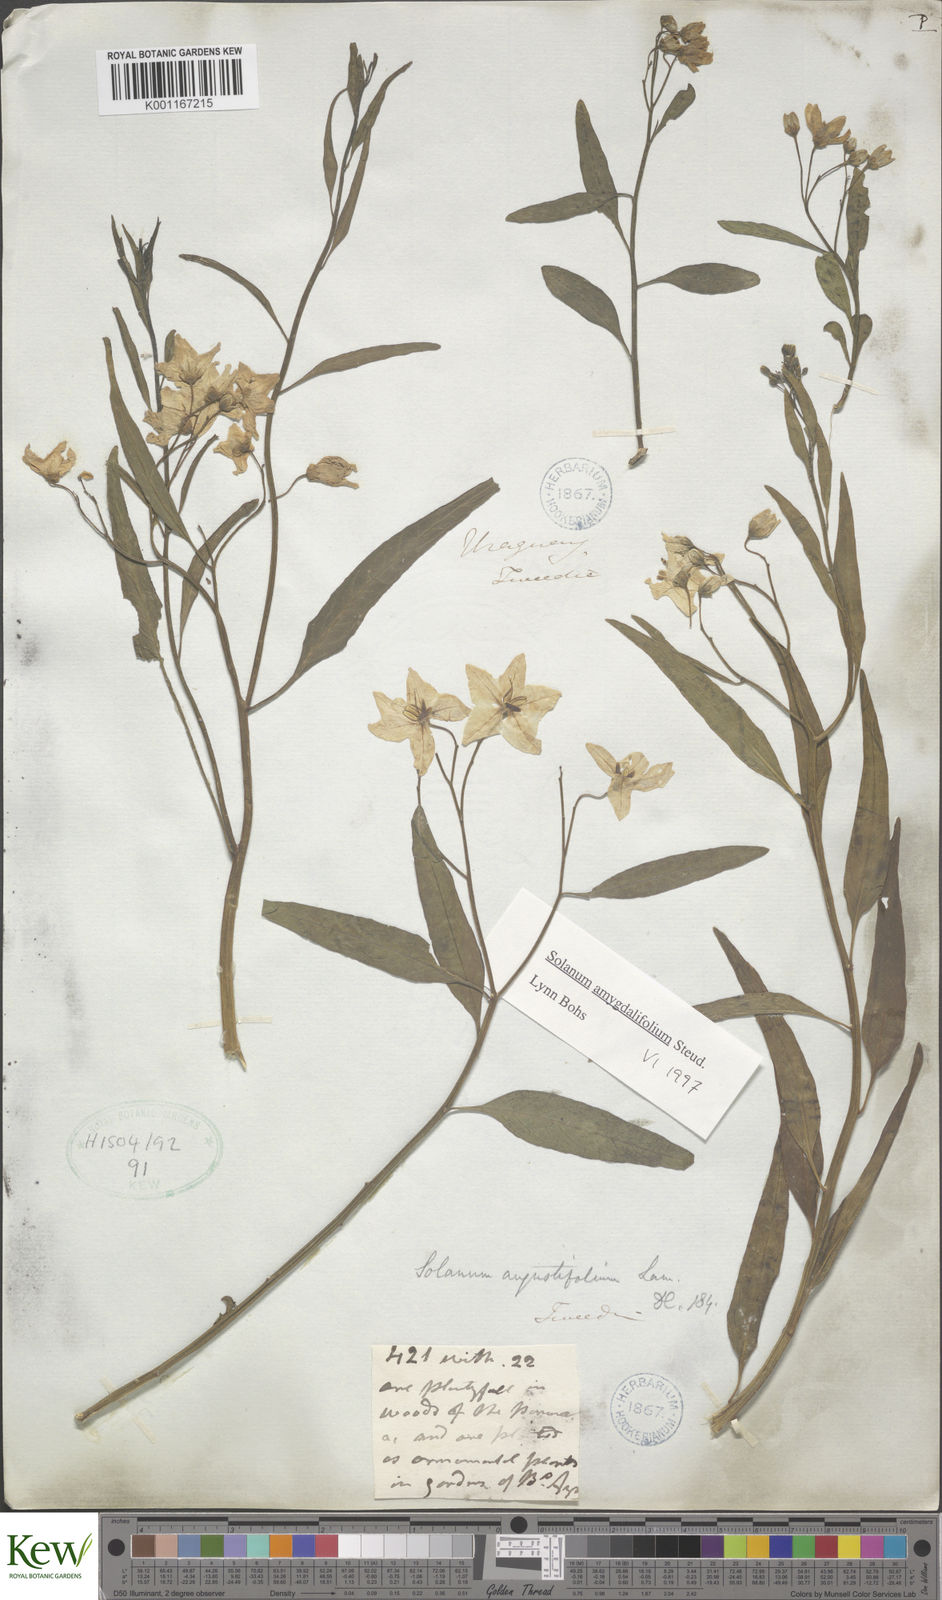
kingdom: Plantae
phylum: Tracheophyta
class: Magnoliopsida
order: Solanales
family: Solanaceae
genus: Solanum
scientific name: Solanum amygdalifolium
